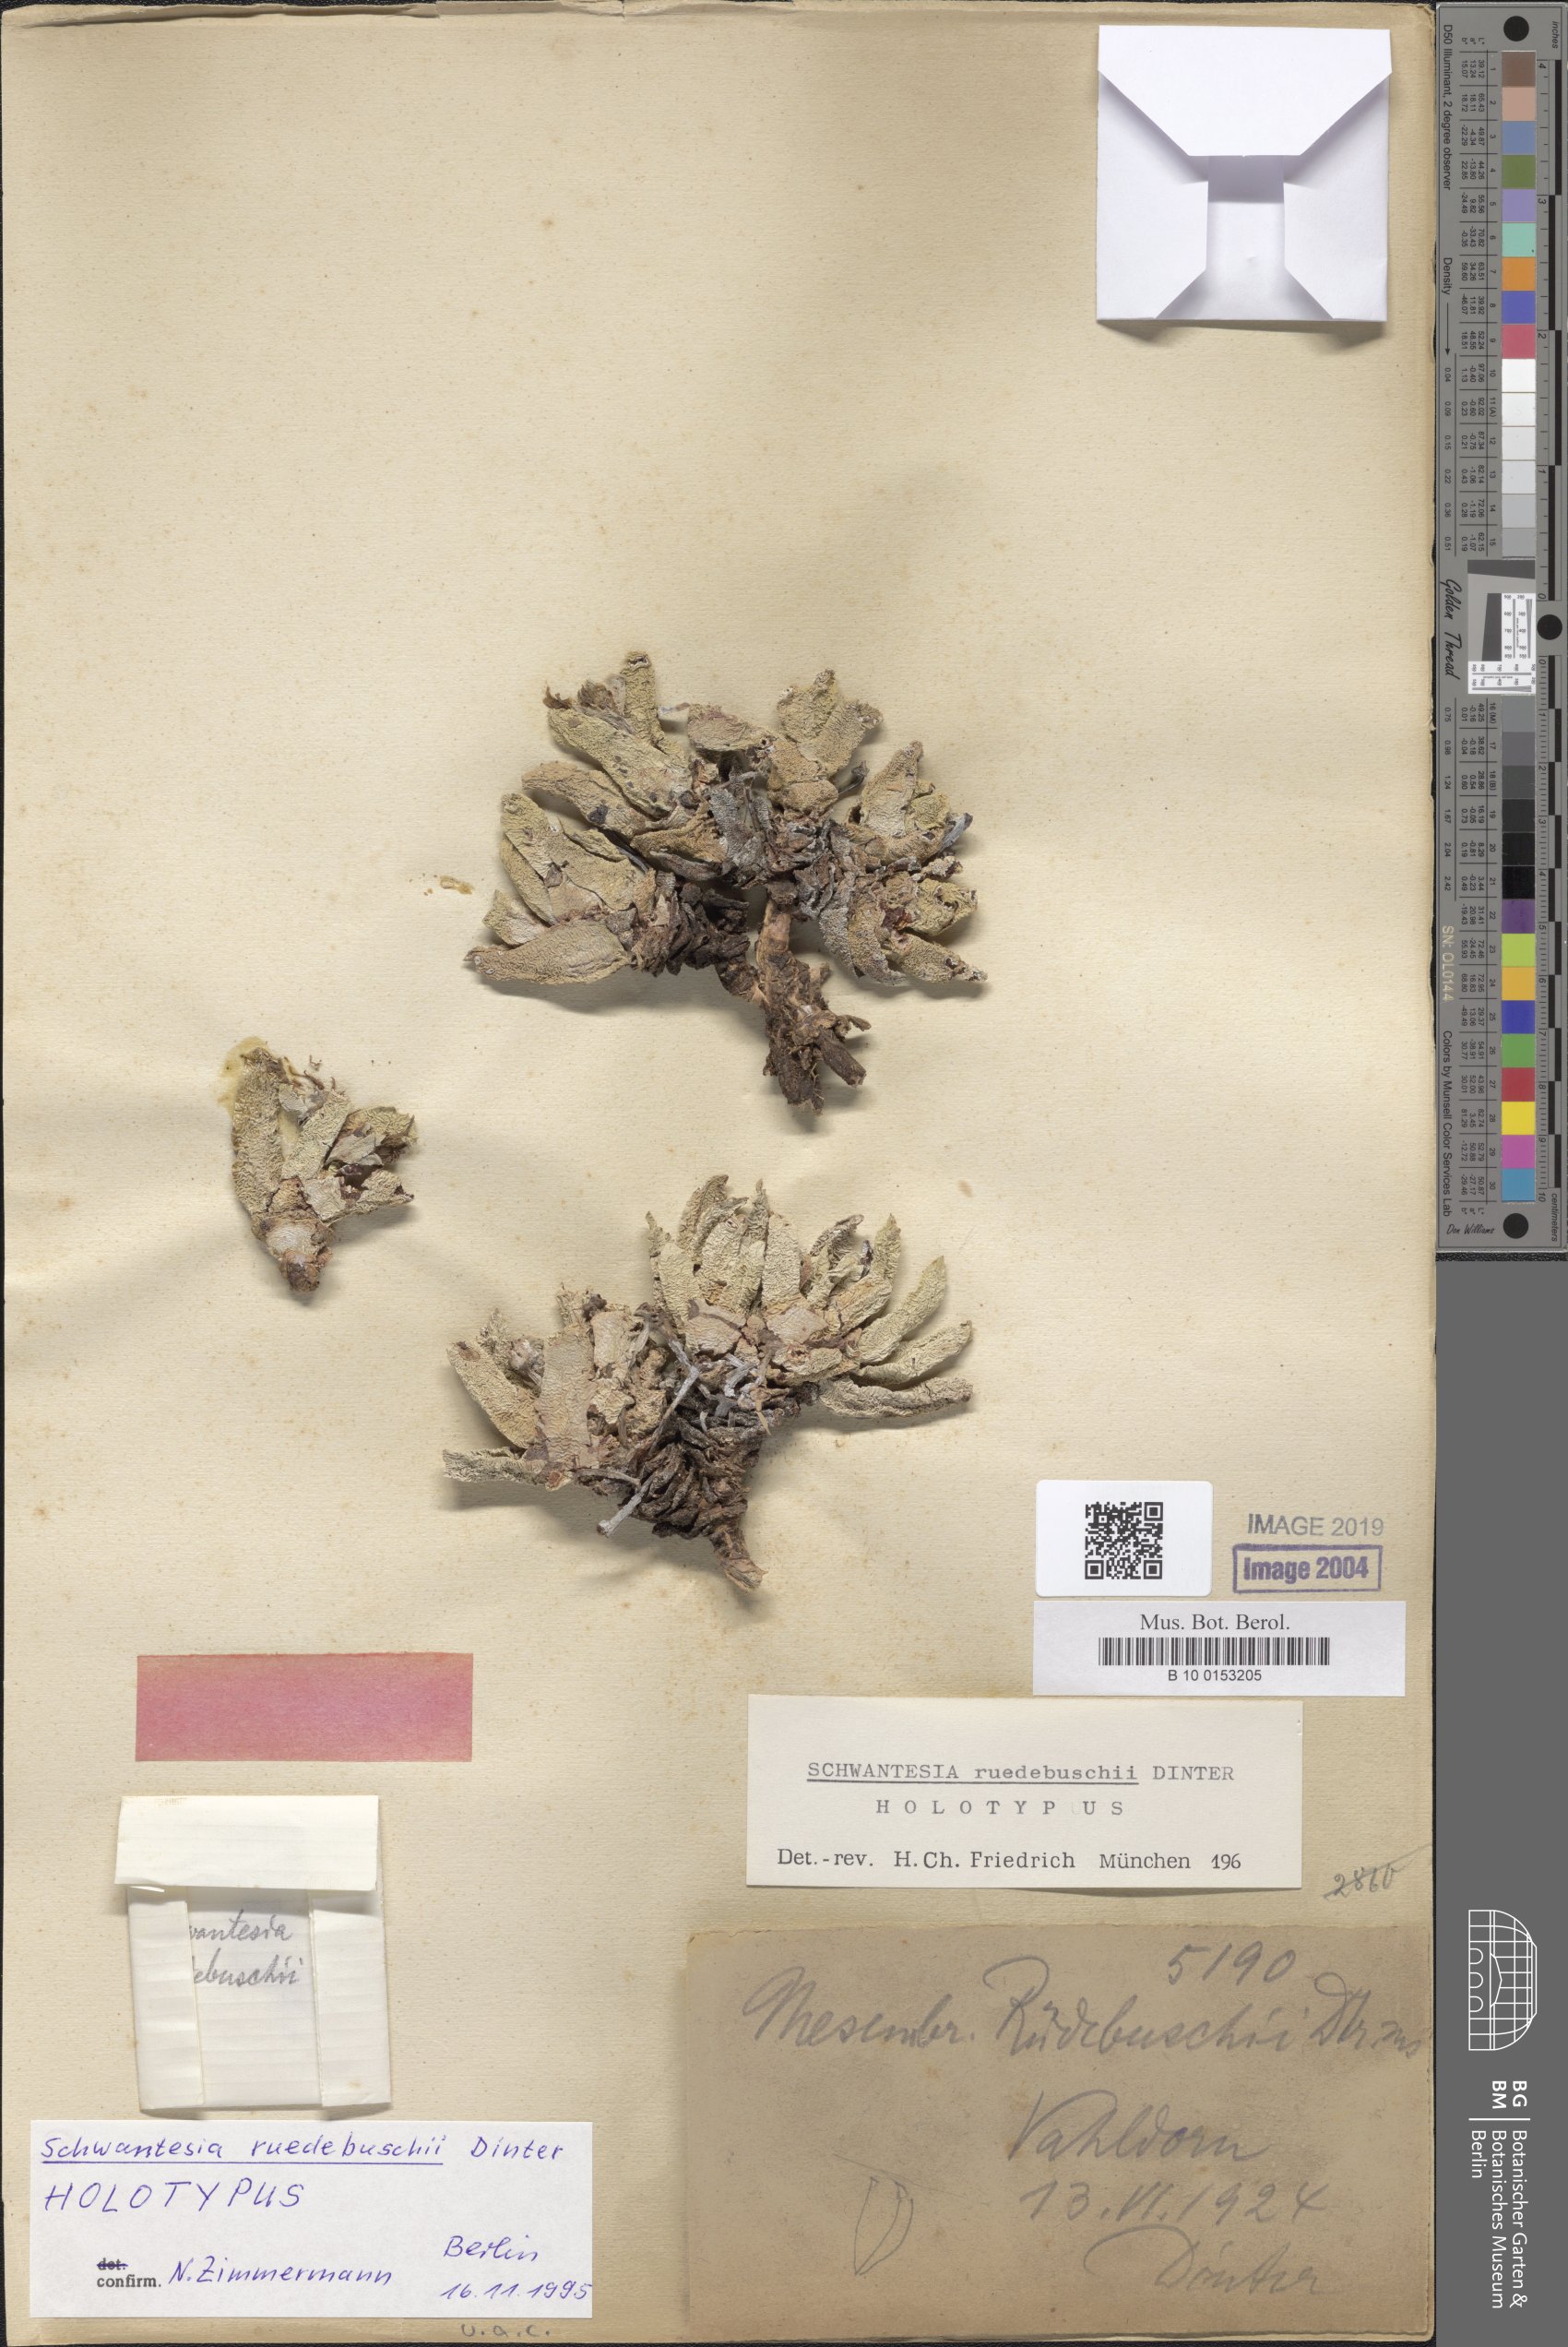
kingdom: Plantae
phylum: Tracheophyta
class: Magnoliopsida
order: Caryophyllales
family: Aizoaceae
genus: Schwantesia
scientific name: Schwantesia ruedebuschii
